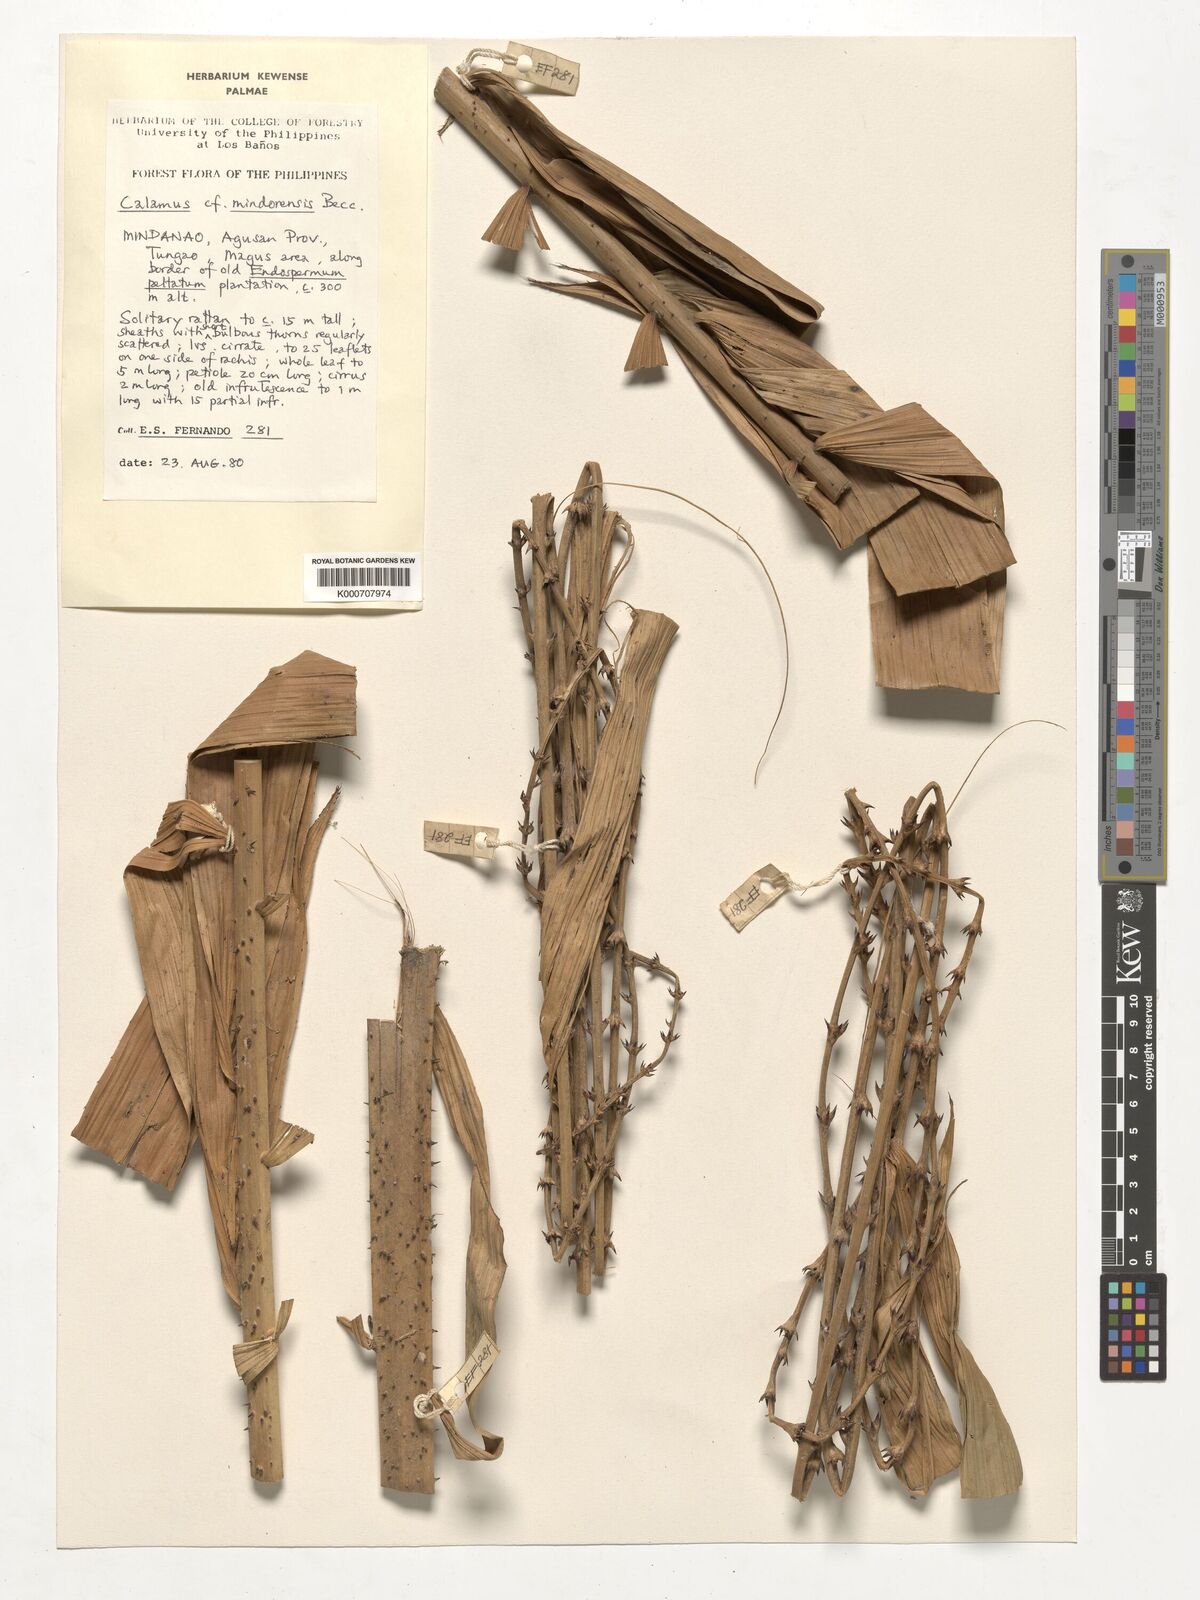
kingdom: Plantae
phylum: Tracheophyta
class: Liliopsida
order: Arecales
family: Arecaceae
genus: Calamus
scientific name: Calamus moseleyanus
